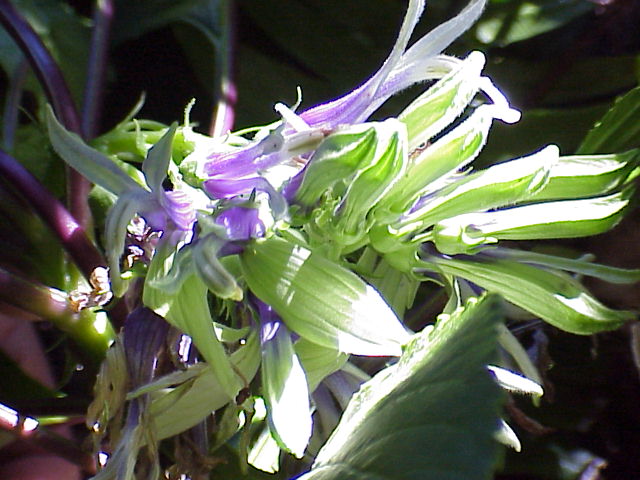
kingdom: Plantae
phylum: Tracheophyta
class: Magnoliopsida
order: Asterales
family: Campanulaceae
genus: Lobelia
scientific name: Lobelia physaloides
